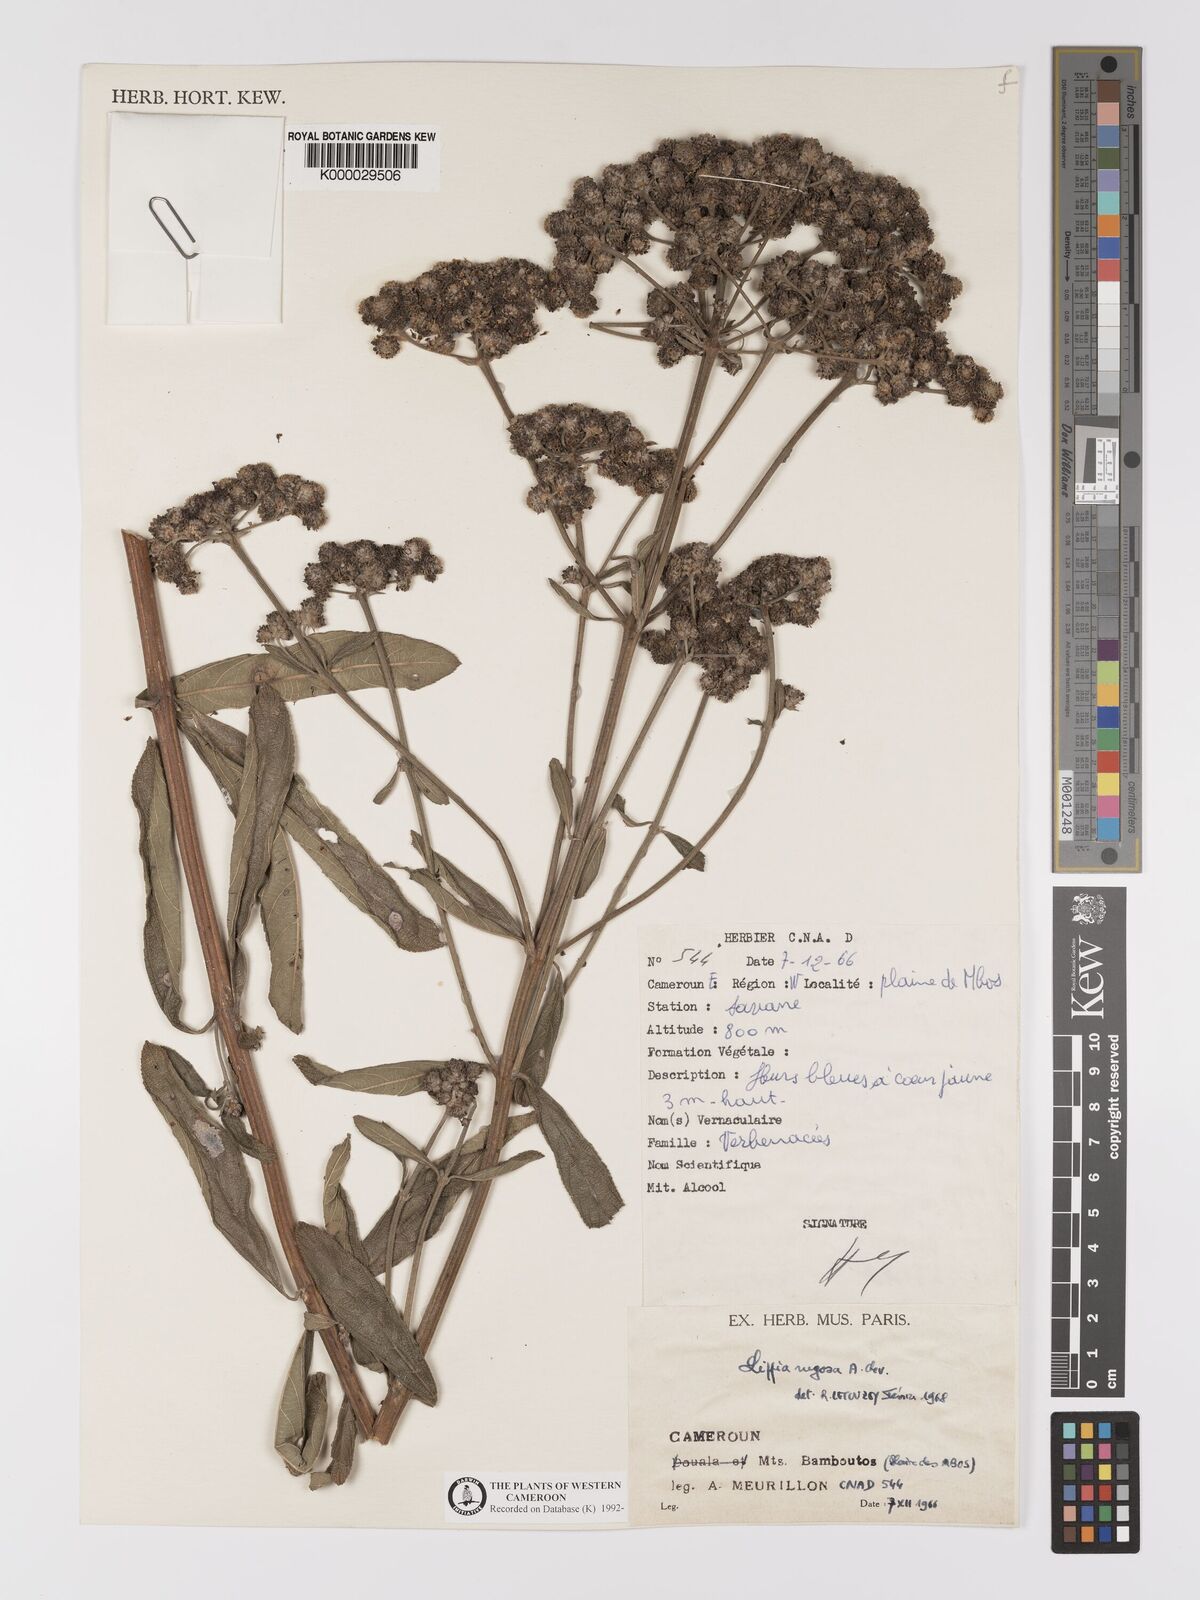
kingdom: Plantae
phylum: Tracheophyta
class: Magnoliopsida
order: Lamiales
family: Verbenaceae
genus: Lippia
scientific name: Lippia rugosa
